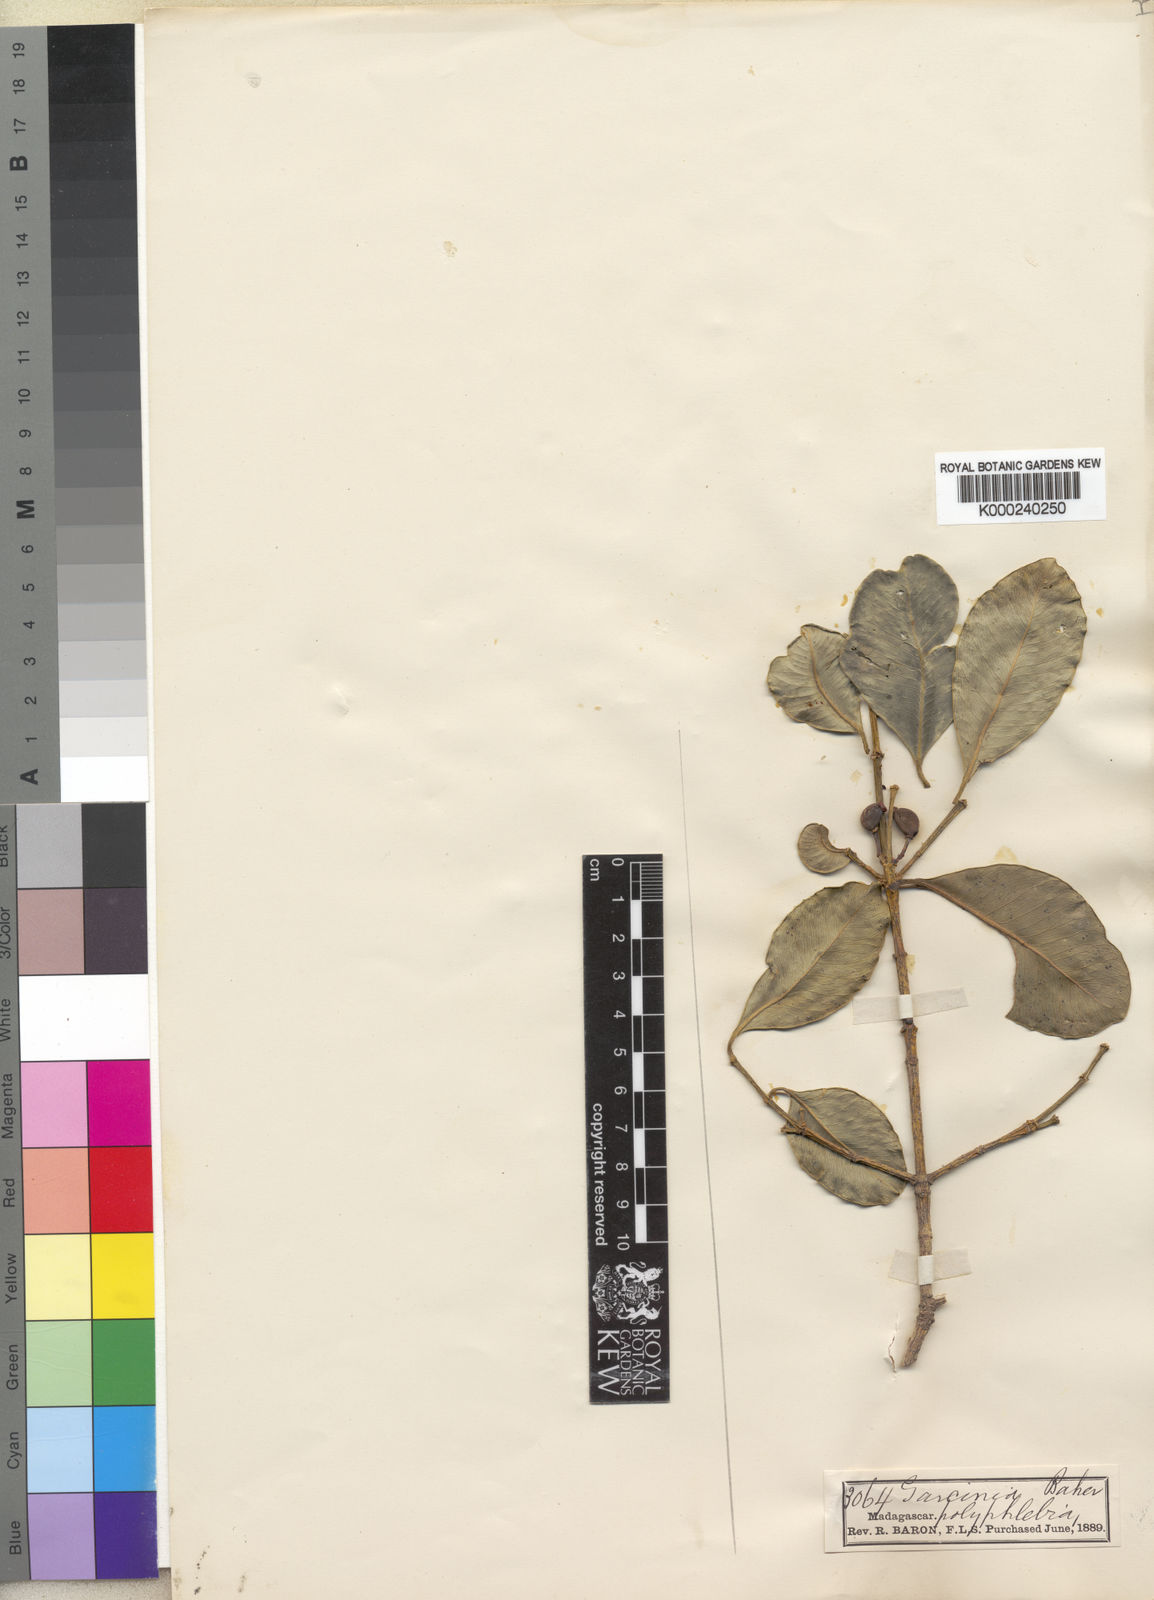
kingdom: Plantae
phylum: Tracheophyta
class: Magnoliopsida
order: Malpighiales
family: Clusiaceae
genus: Garcinia
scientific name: Garcinia chapelieri
